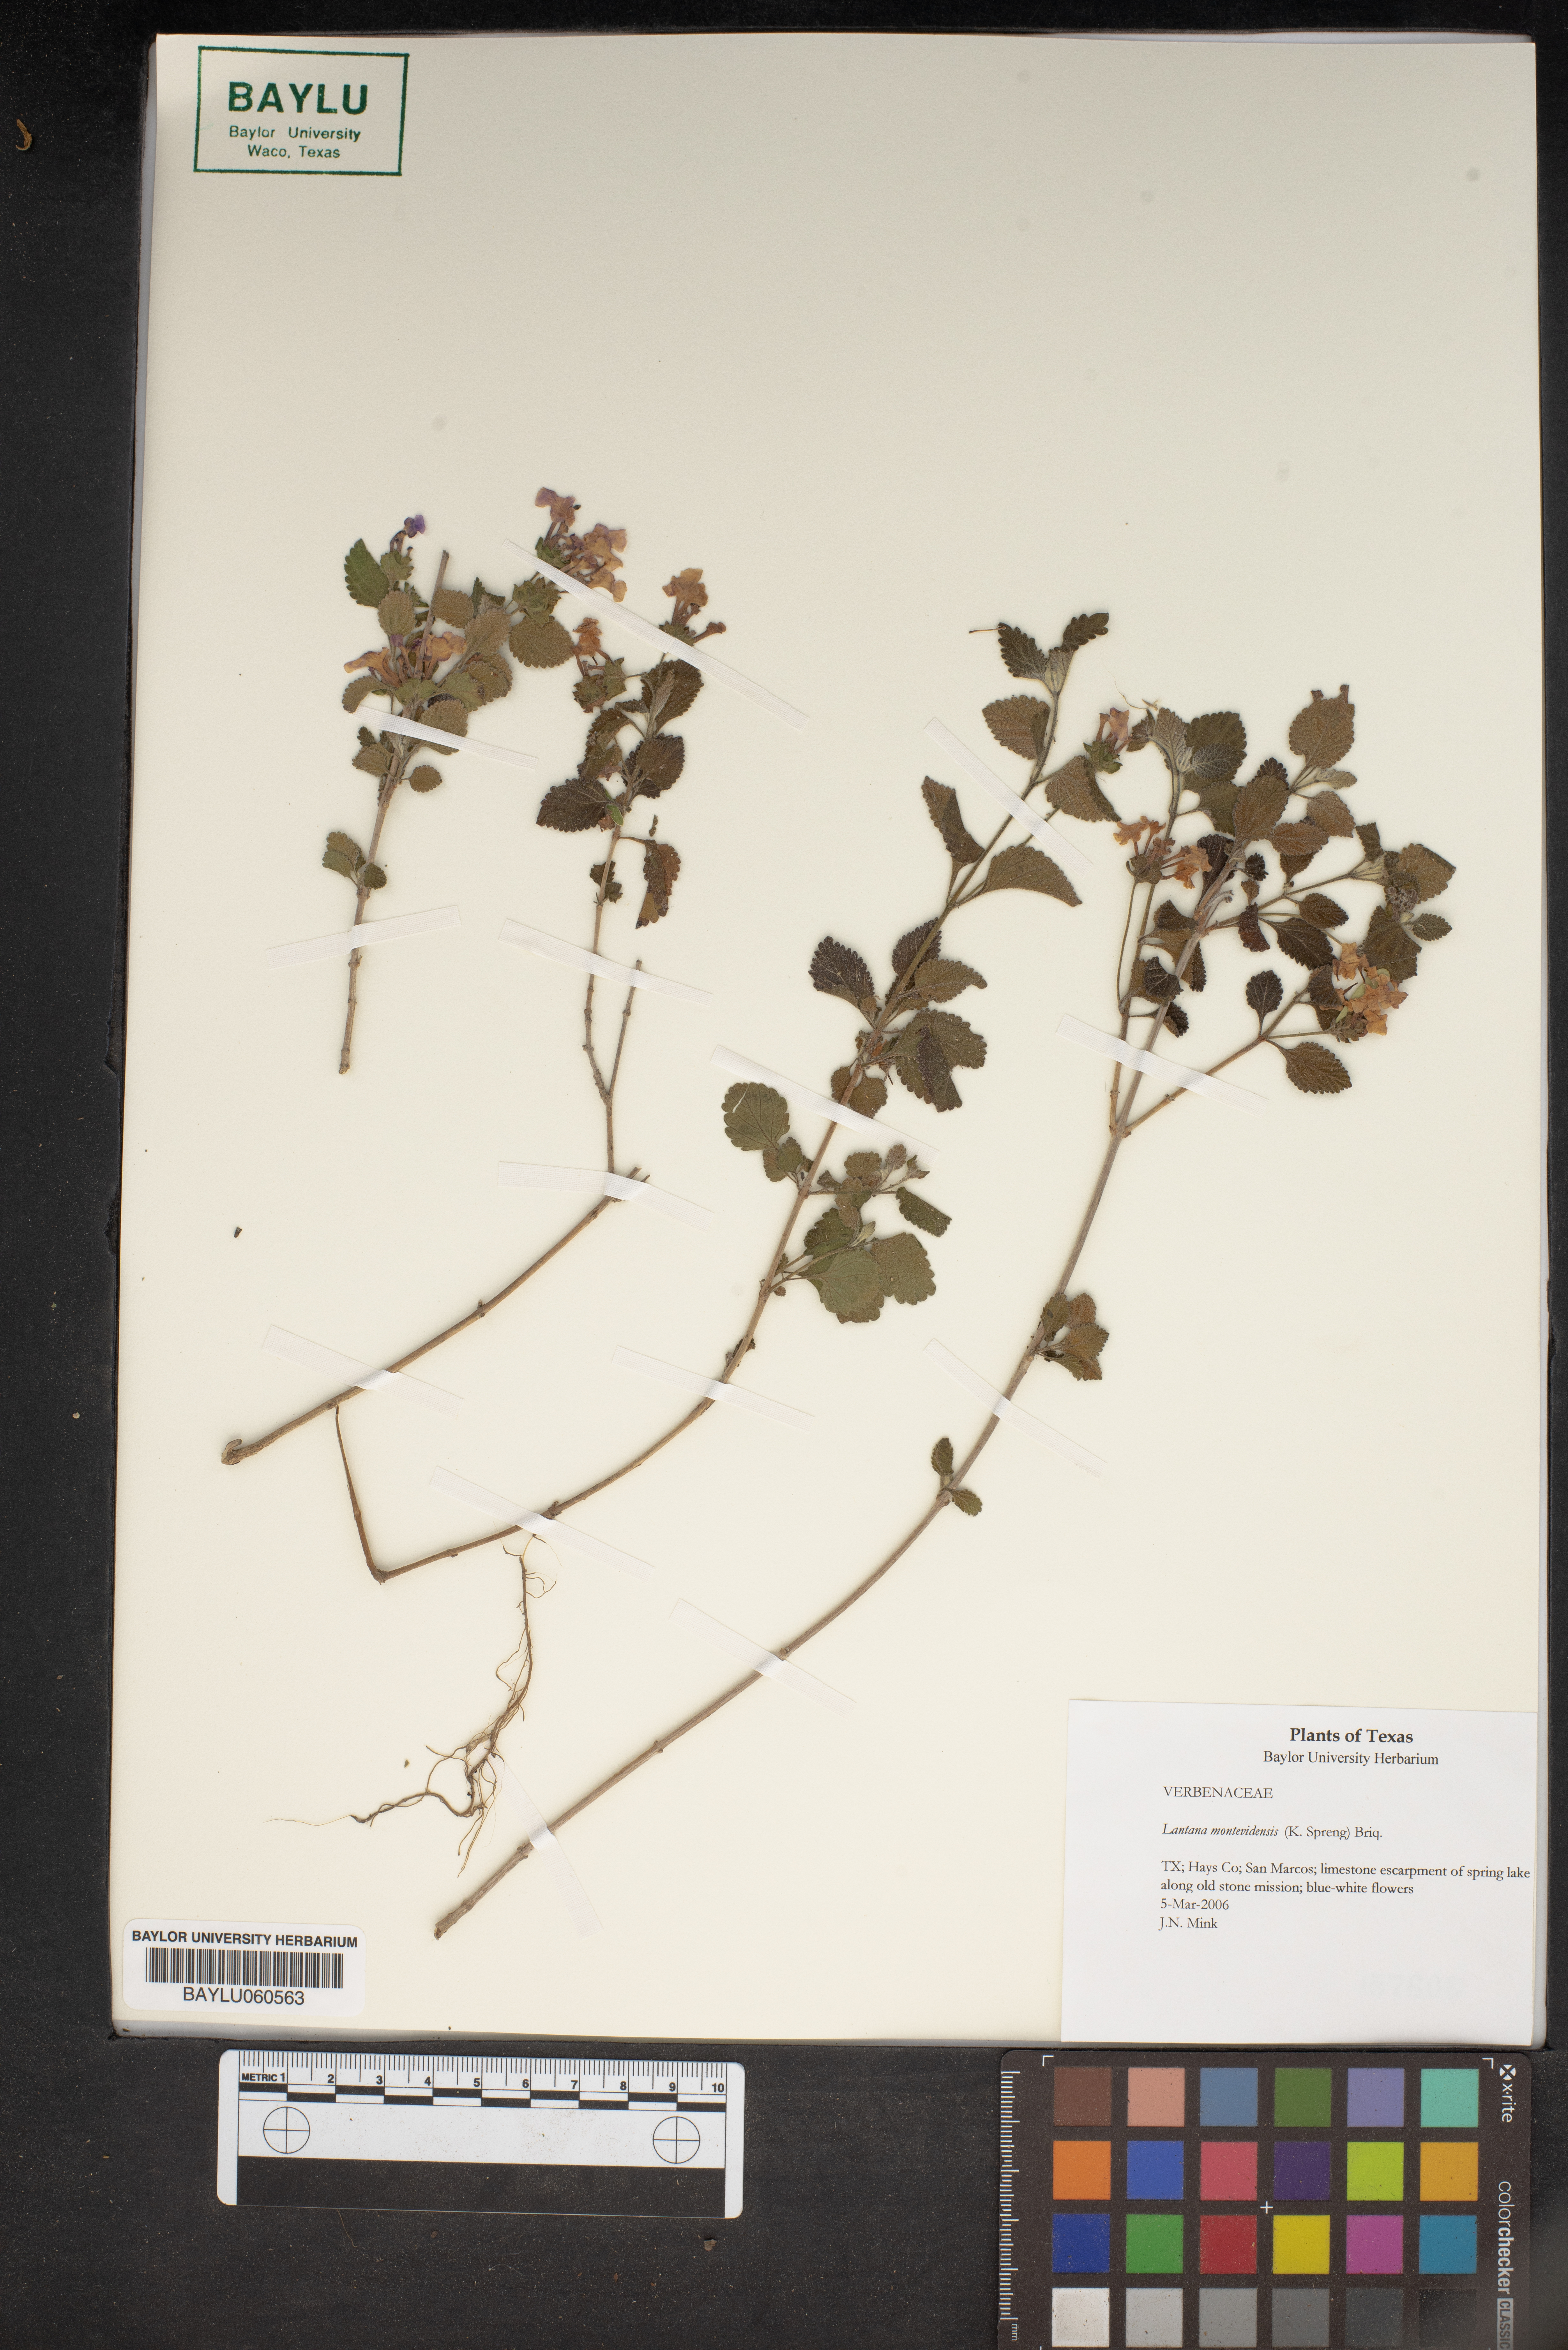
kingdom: Plantae
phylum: Tracheophyta
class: Magnoliopsida
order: Lamiales
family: Verbenaceae
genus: Lantana
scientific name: Lantana montevidensis
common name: Trailing shrubverbena
